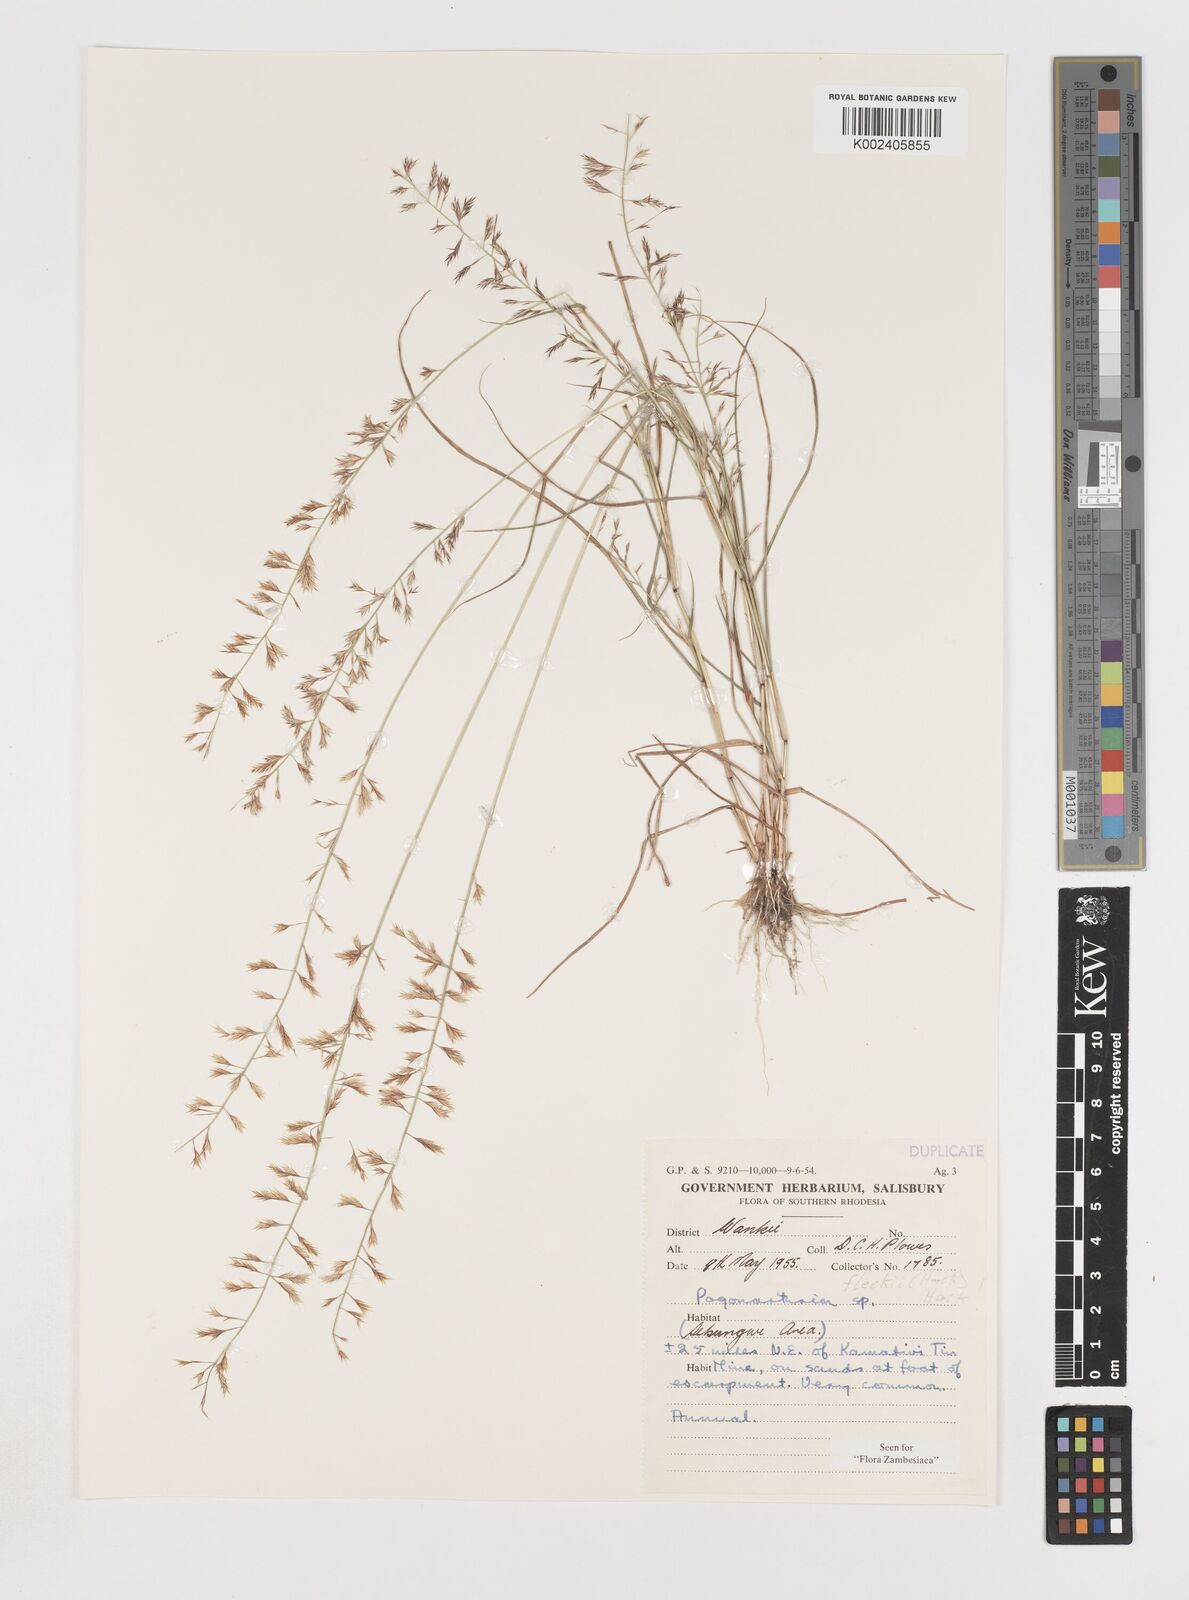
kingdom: Plantae
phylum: Tracheophyta
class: Liliopsida
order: Poales
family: Poaceae
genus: Pogonarthria
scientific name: Pogonarthria fleckii
